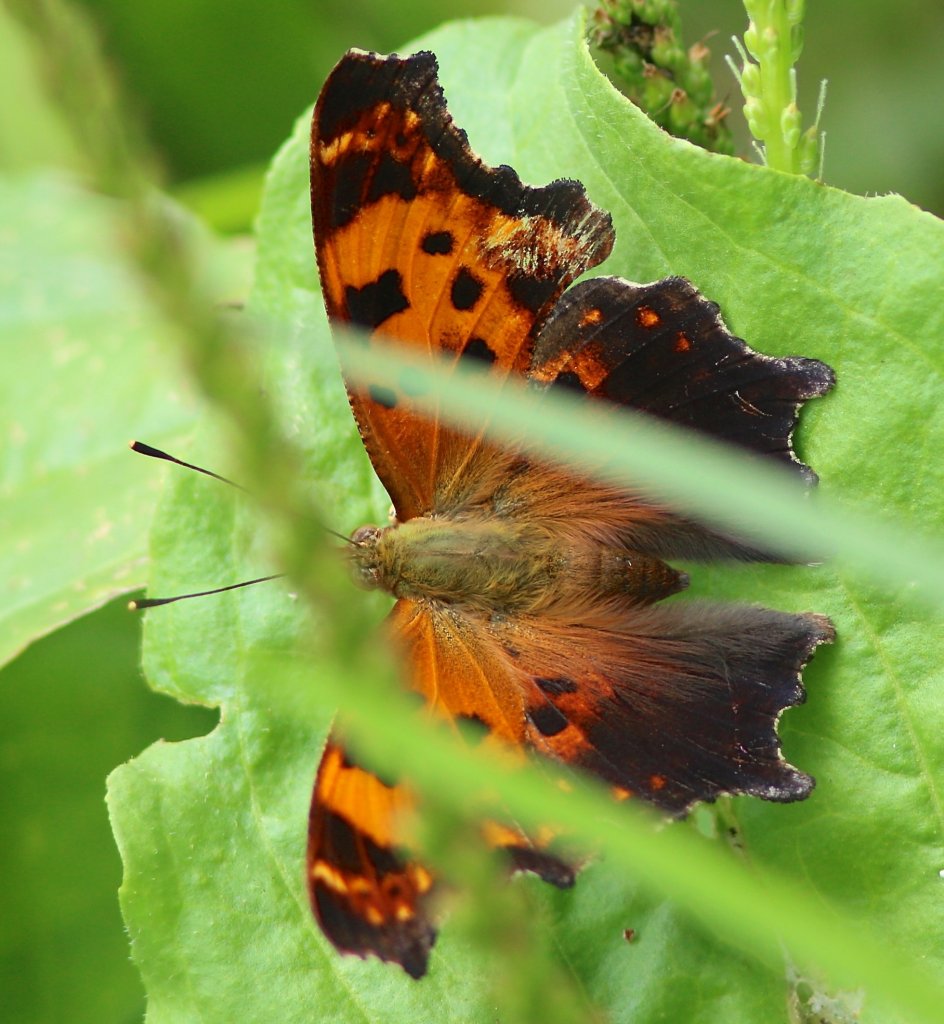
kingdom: Animalia
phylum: Arthropoda
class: Insecta
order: Lepidoptera
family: Nymphalidae
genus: Polygonia
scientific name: Polygonia comma
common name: Eastern Comma
